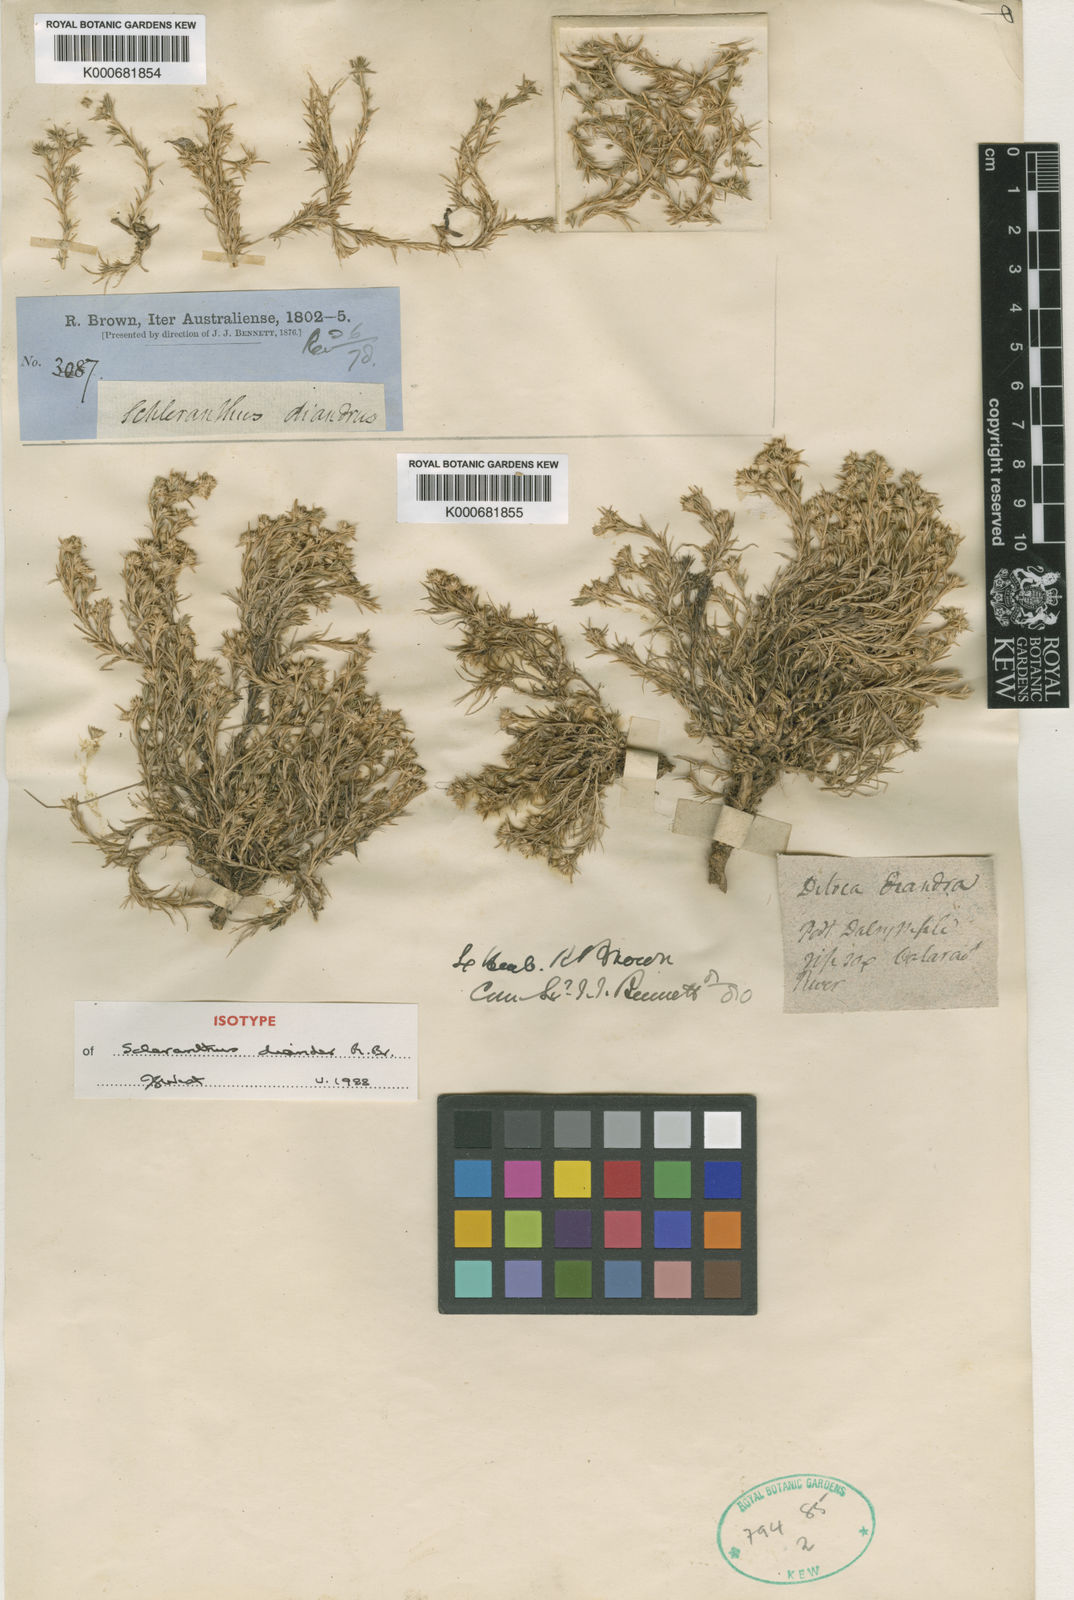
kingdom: Plantae
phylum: Tracheophyta
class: Magnoliopsida
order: Caryophyllales
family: Caryophyllaceae
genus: Scleranthus
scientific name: Scleranthus diander
